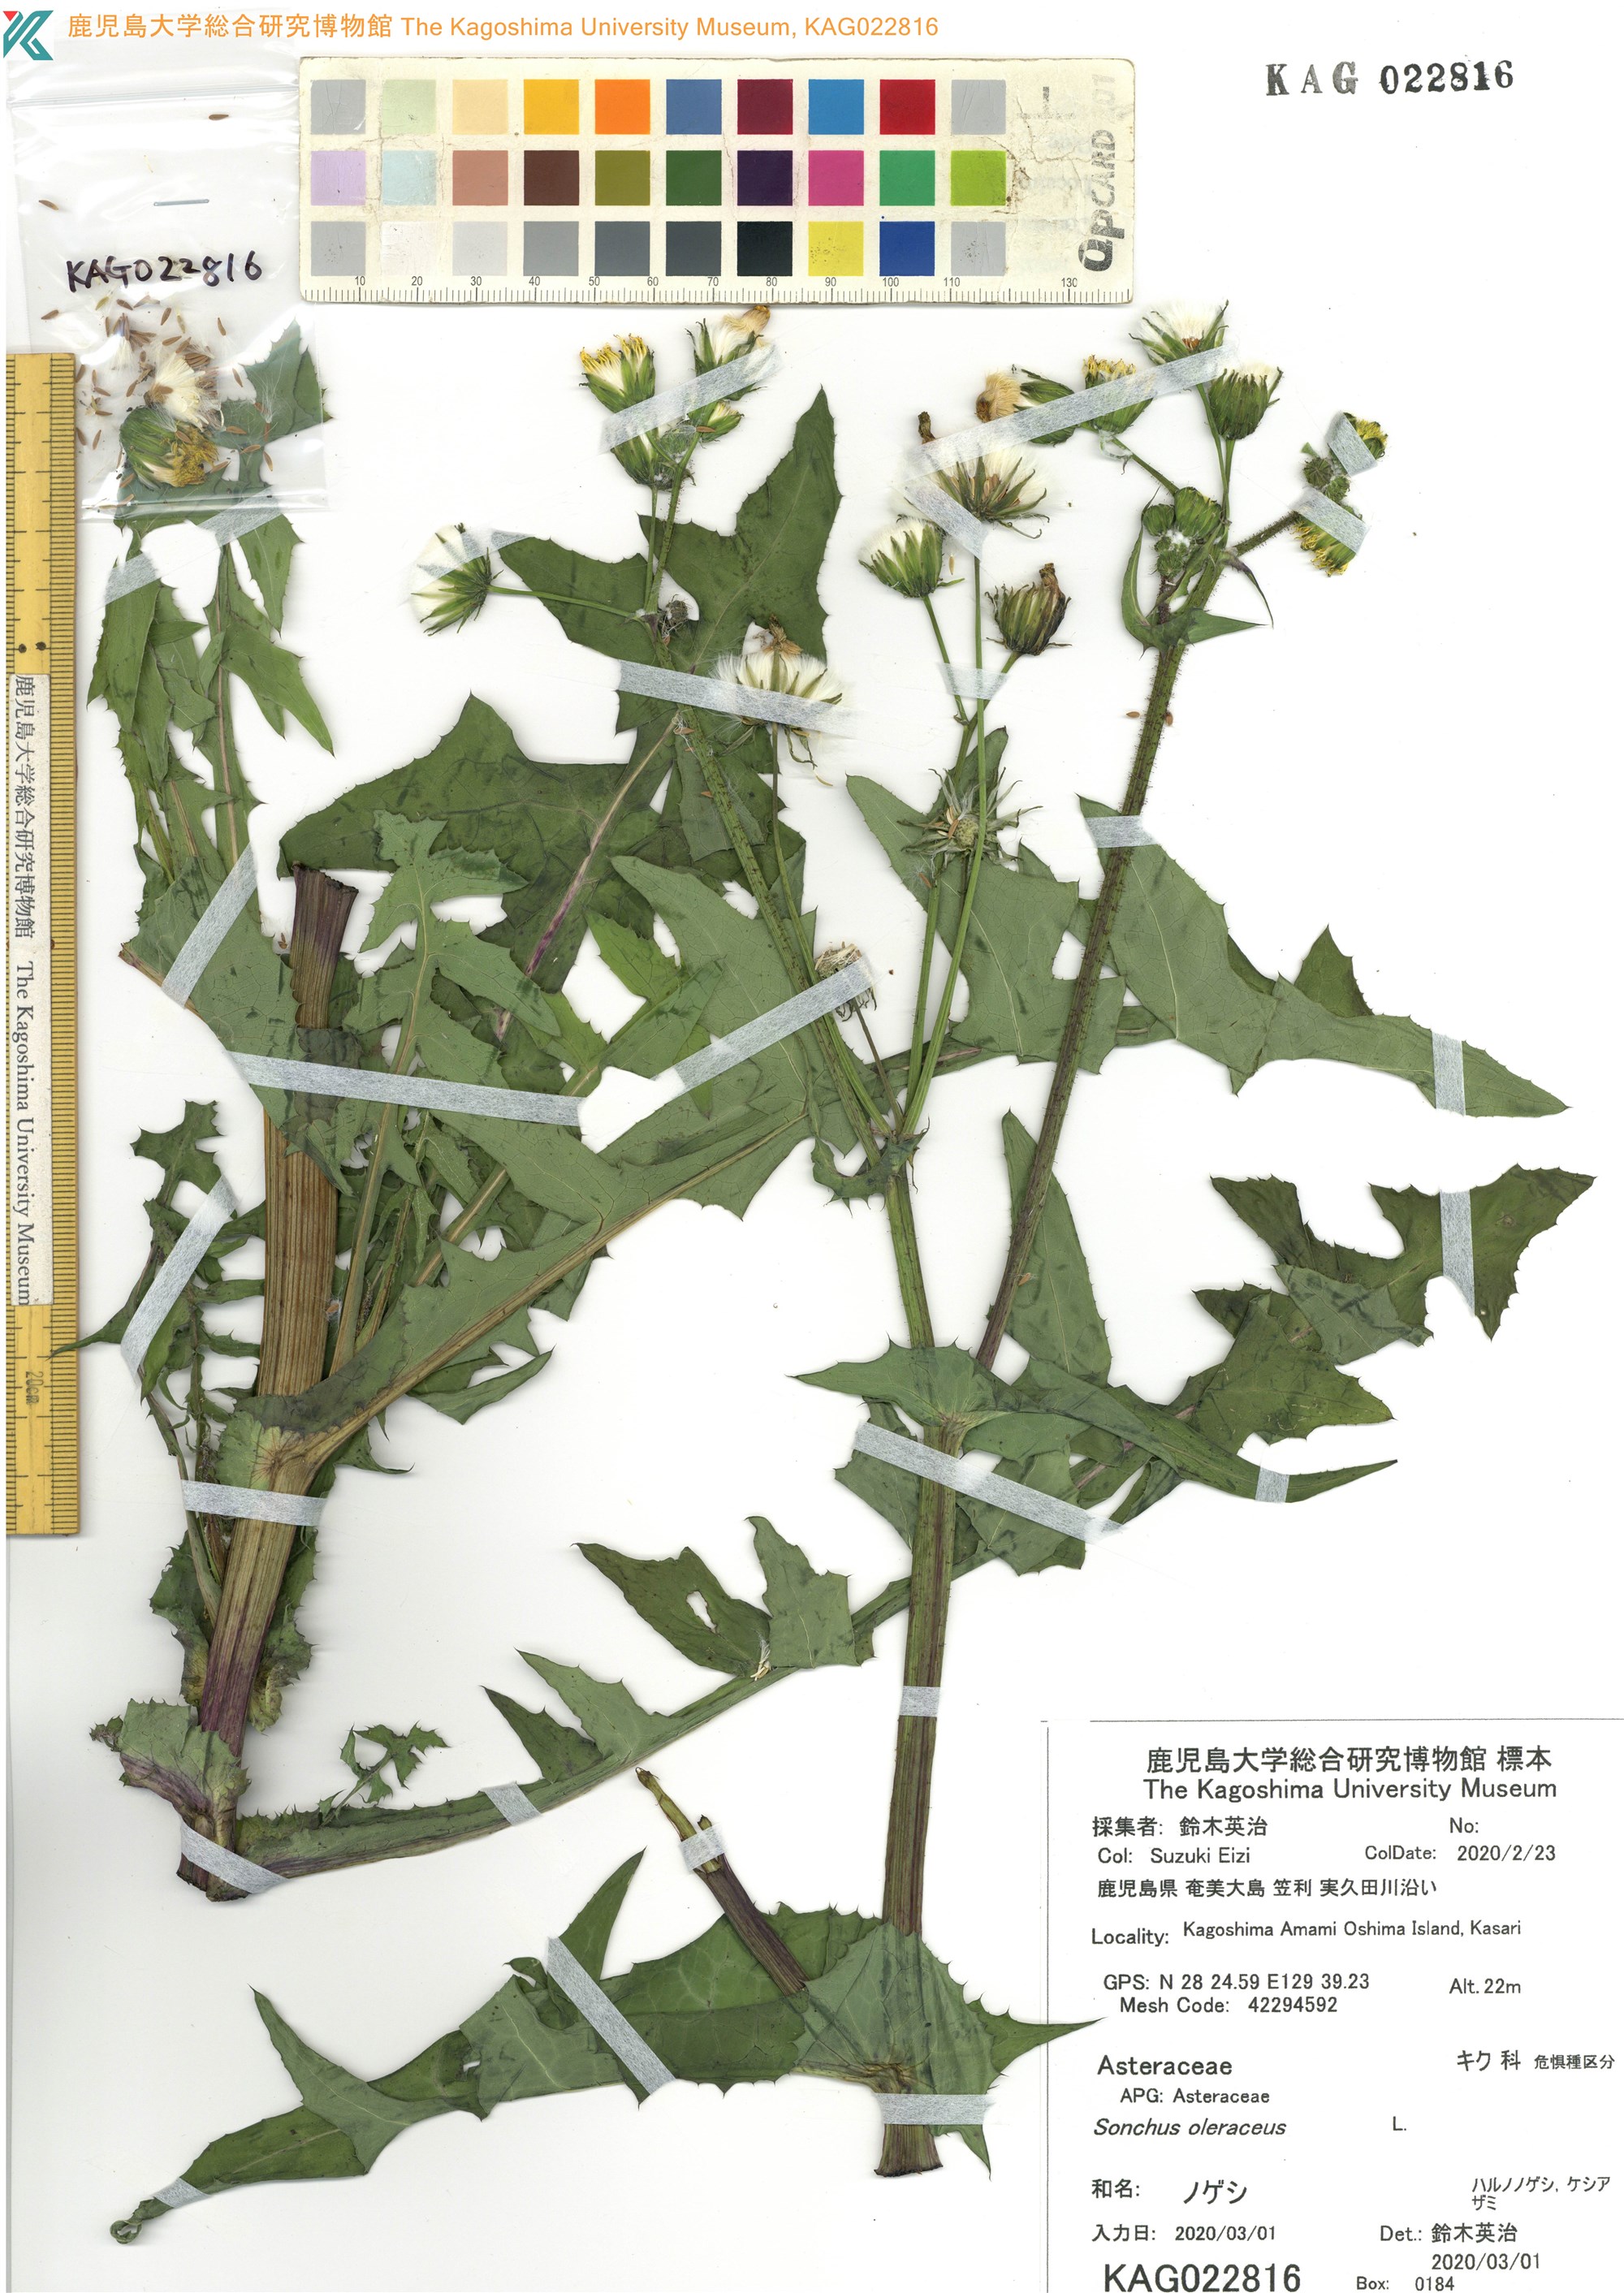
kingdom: Plantae
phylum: Tracheophyta
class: Magnoliopsida
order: Asterales
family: Asteraceae
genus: Sonchus
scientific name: Sonchus oleraceus
